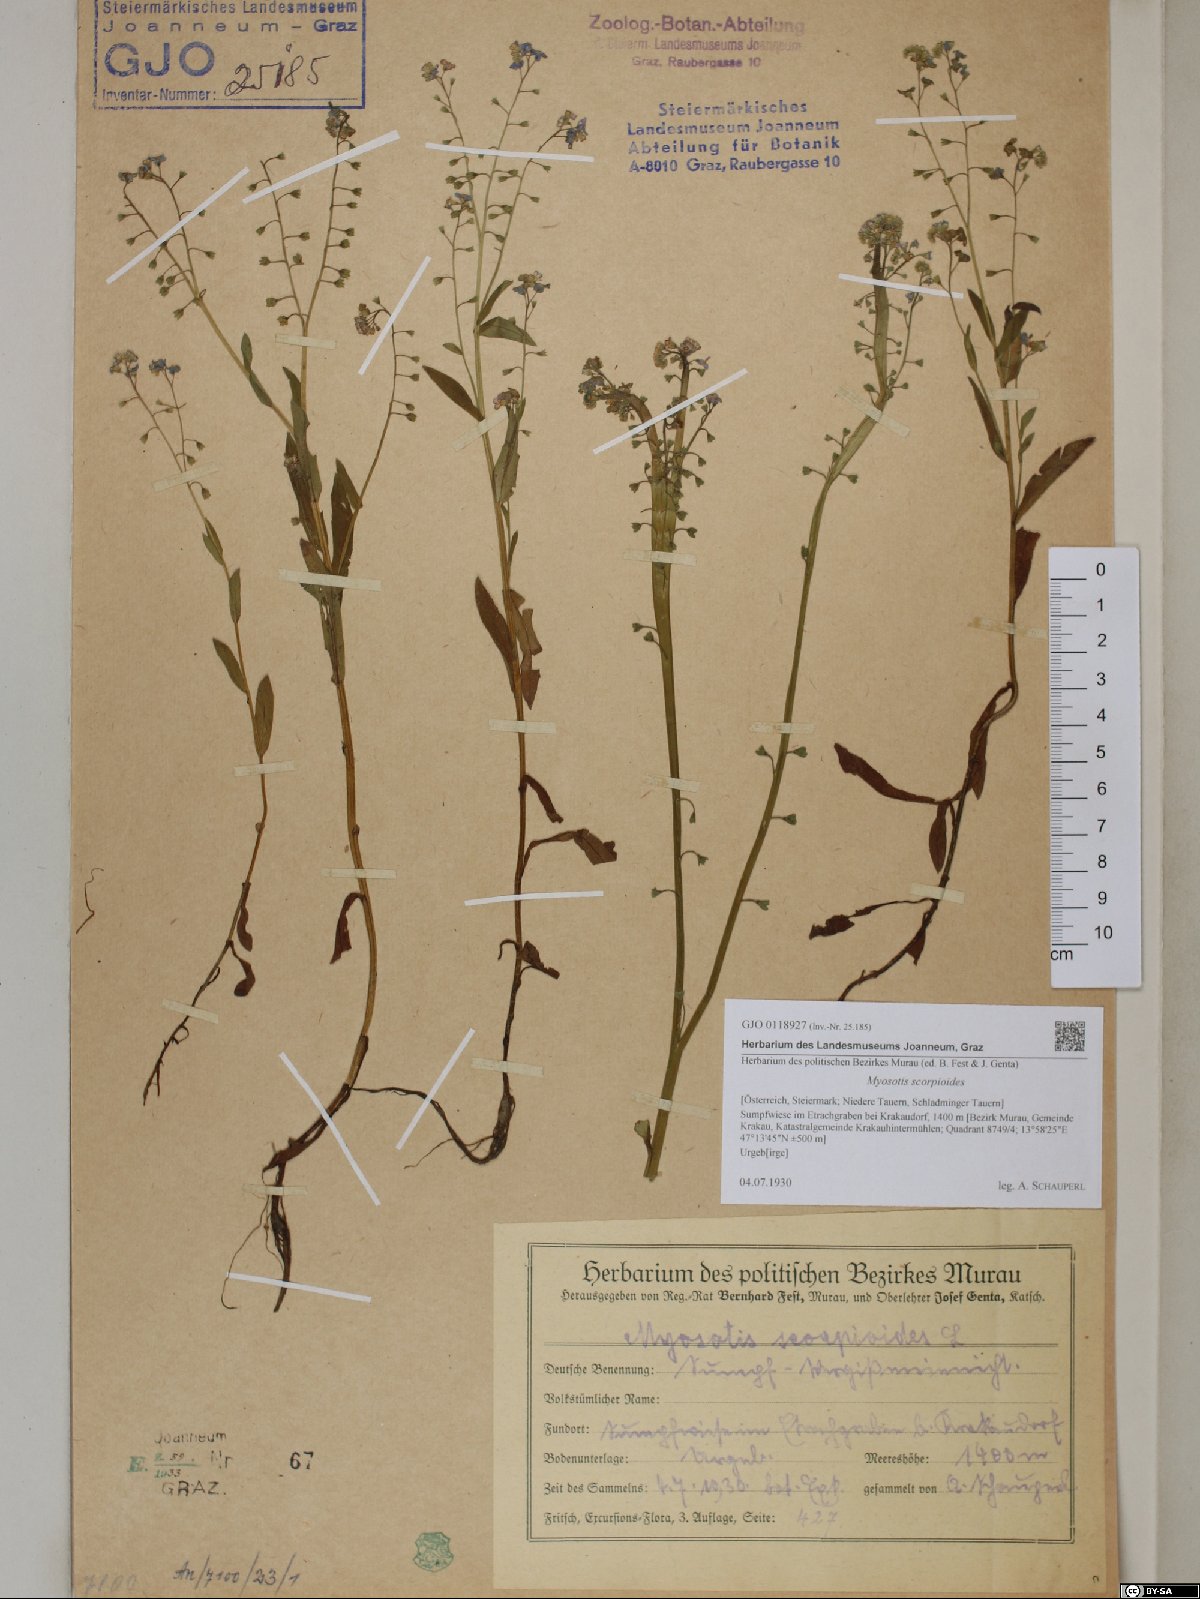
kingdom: Plantae
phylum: Tracheophyta
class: Magnoliopsida
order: Boraginales
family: Boraginaceae
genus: Myosotis
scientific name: Myosotis scorpioides
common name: Water forget-me-not
